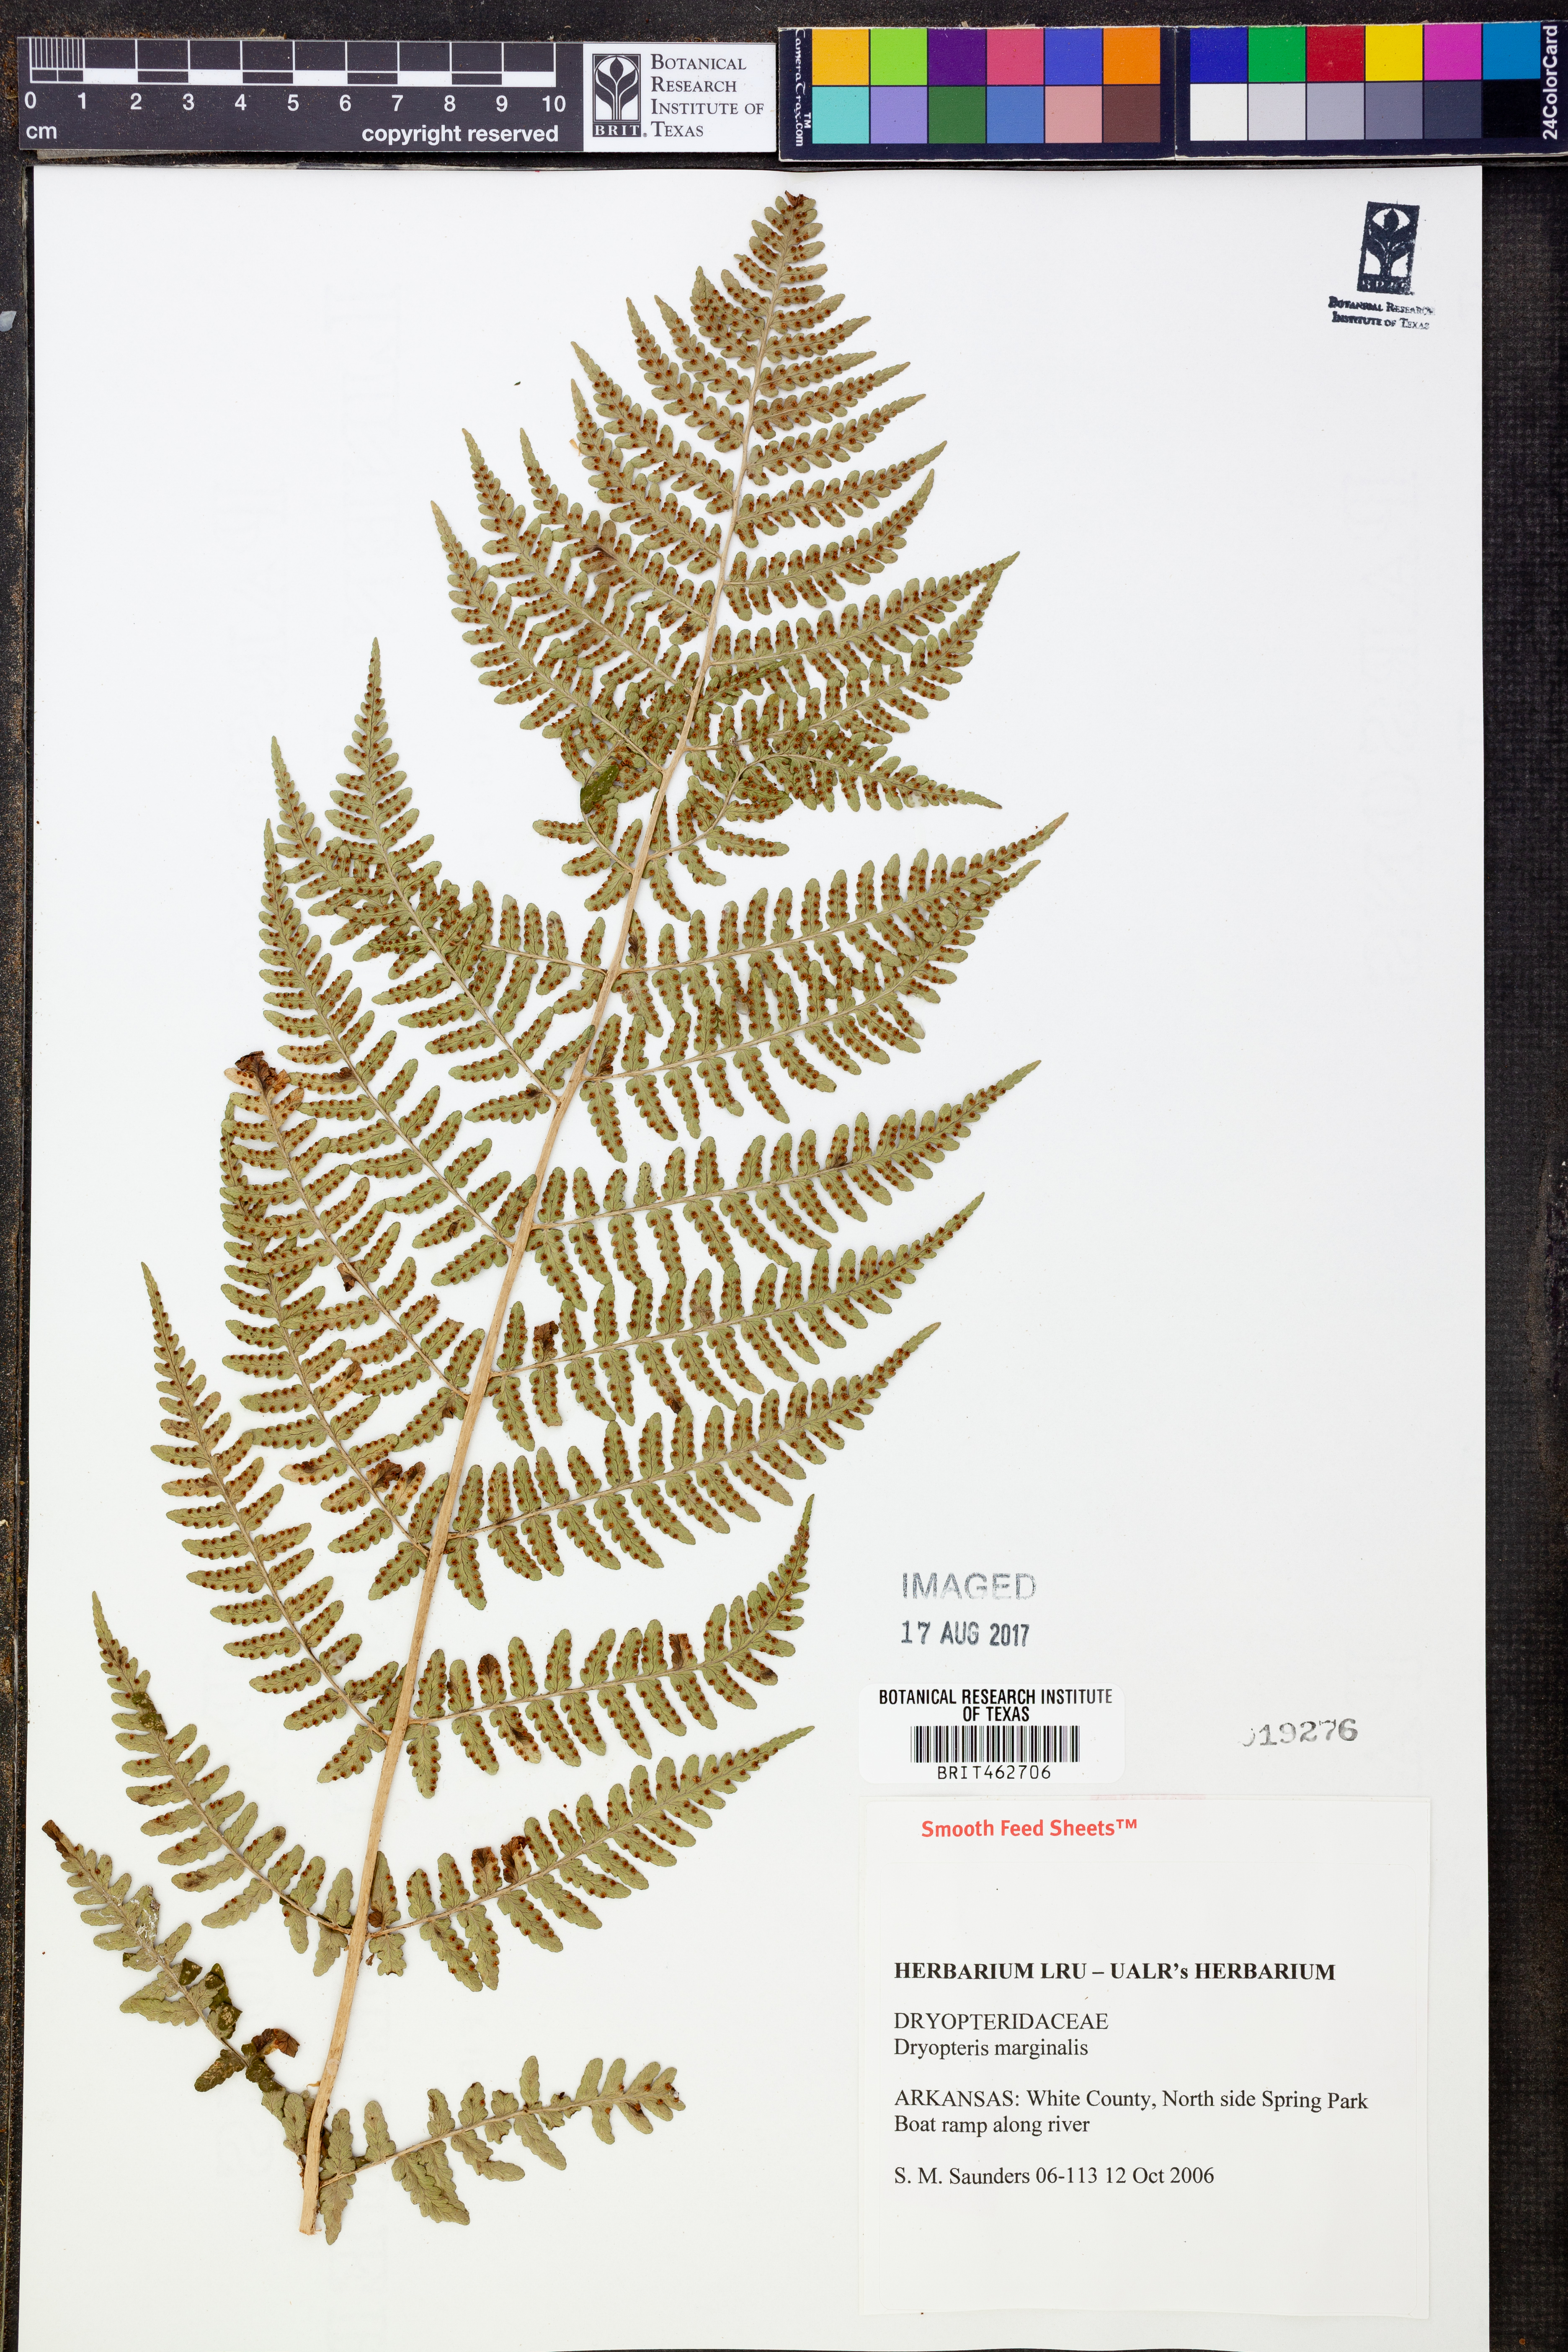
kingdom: Plantae
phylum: Tracheophyta
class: Polypodiopsida
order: Polypodiales
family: Dryopteridaceae
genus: Dryopteris
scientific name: Dryopteris marginalis
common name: Marginal wood fern
